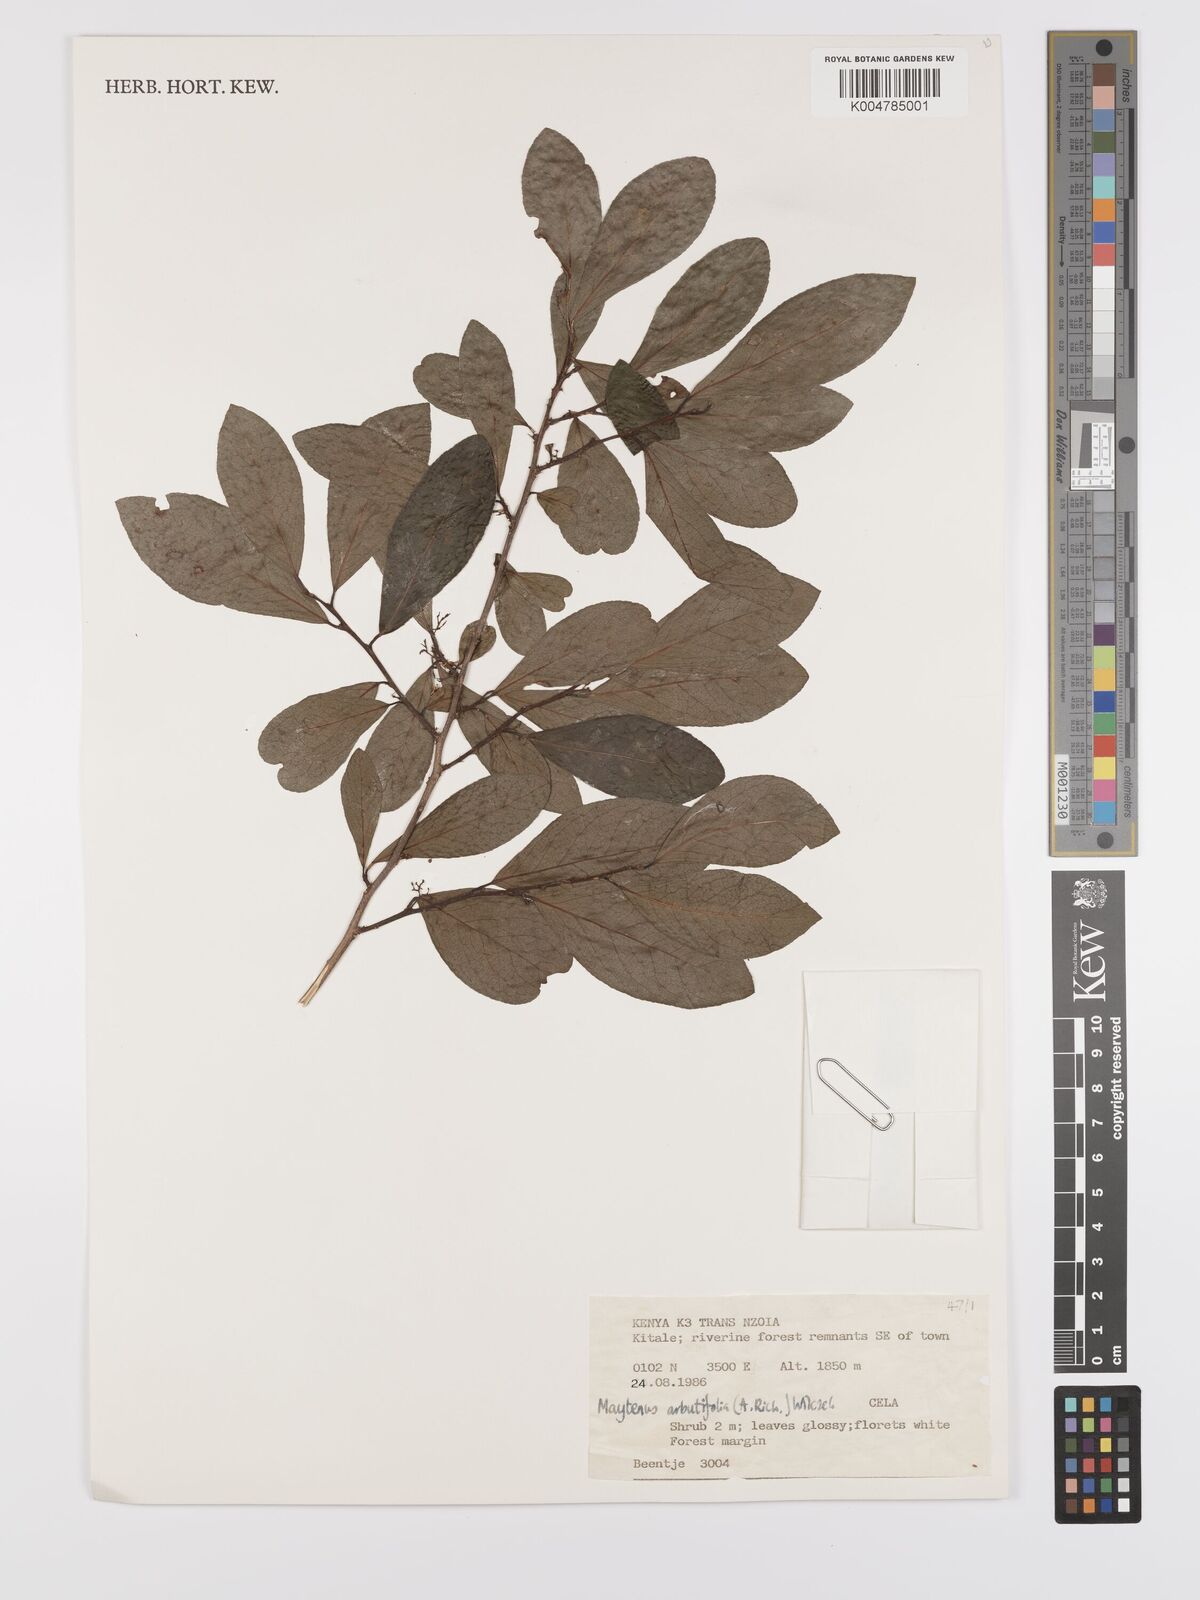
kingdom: Plantae
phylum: Tracheophyta
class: Magnoliopsida
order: Celastrales
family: Celastraceae
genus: Gymnosporia
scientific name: Gymnosporia arbutifolia
